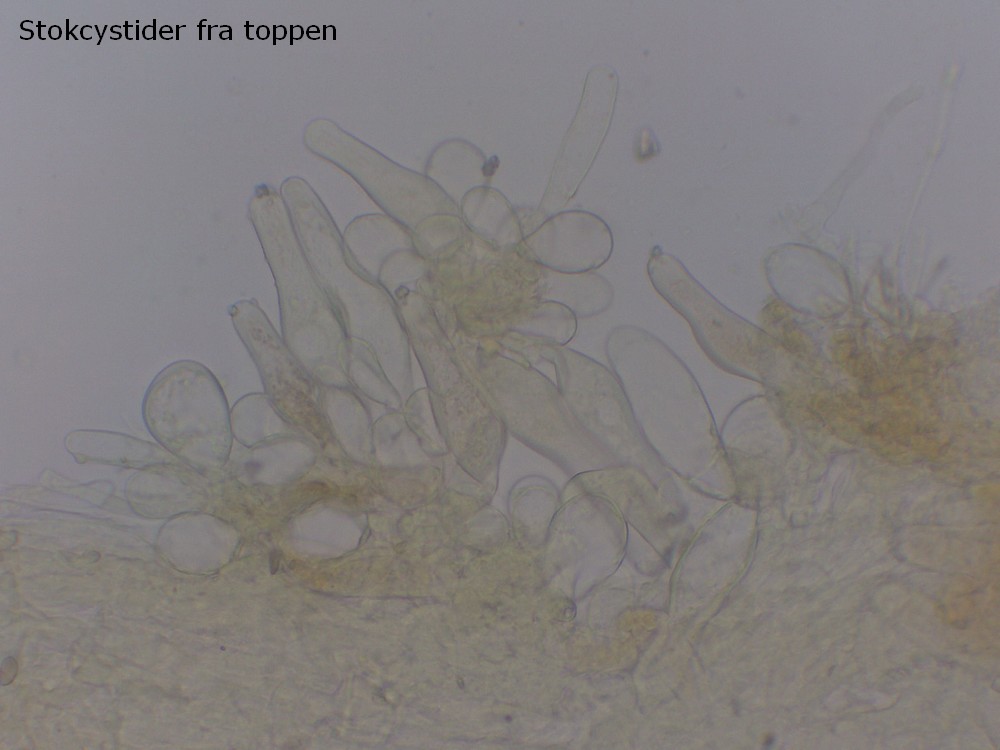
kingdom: Fungi
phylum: Basidiomycota
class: Agaricomycetes
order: Agaricales
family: Inocybaceae
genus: Inocybe
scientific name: Inocybe whitei
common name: Blushing fibrecap
